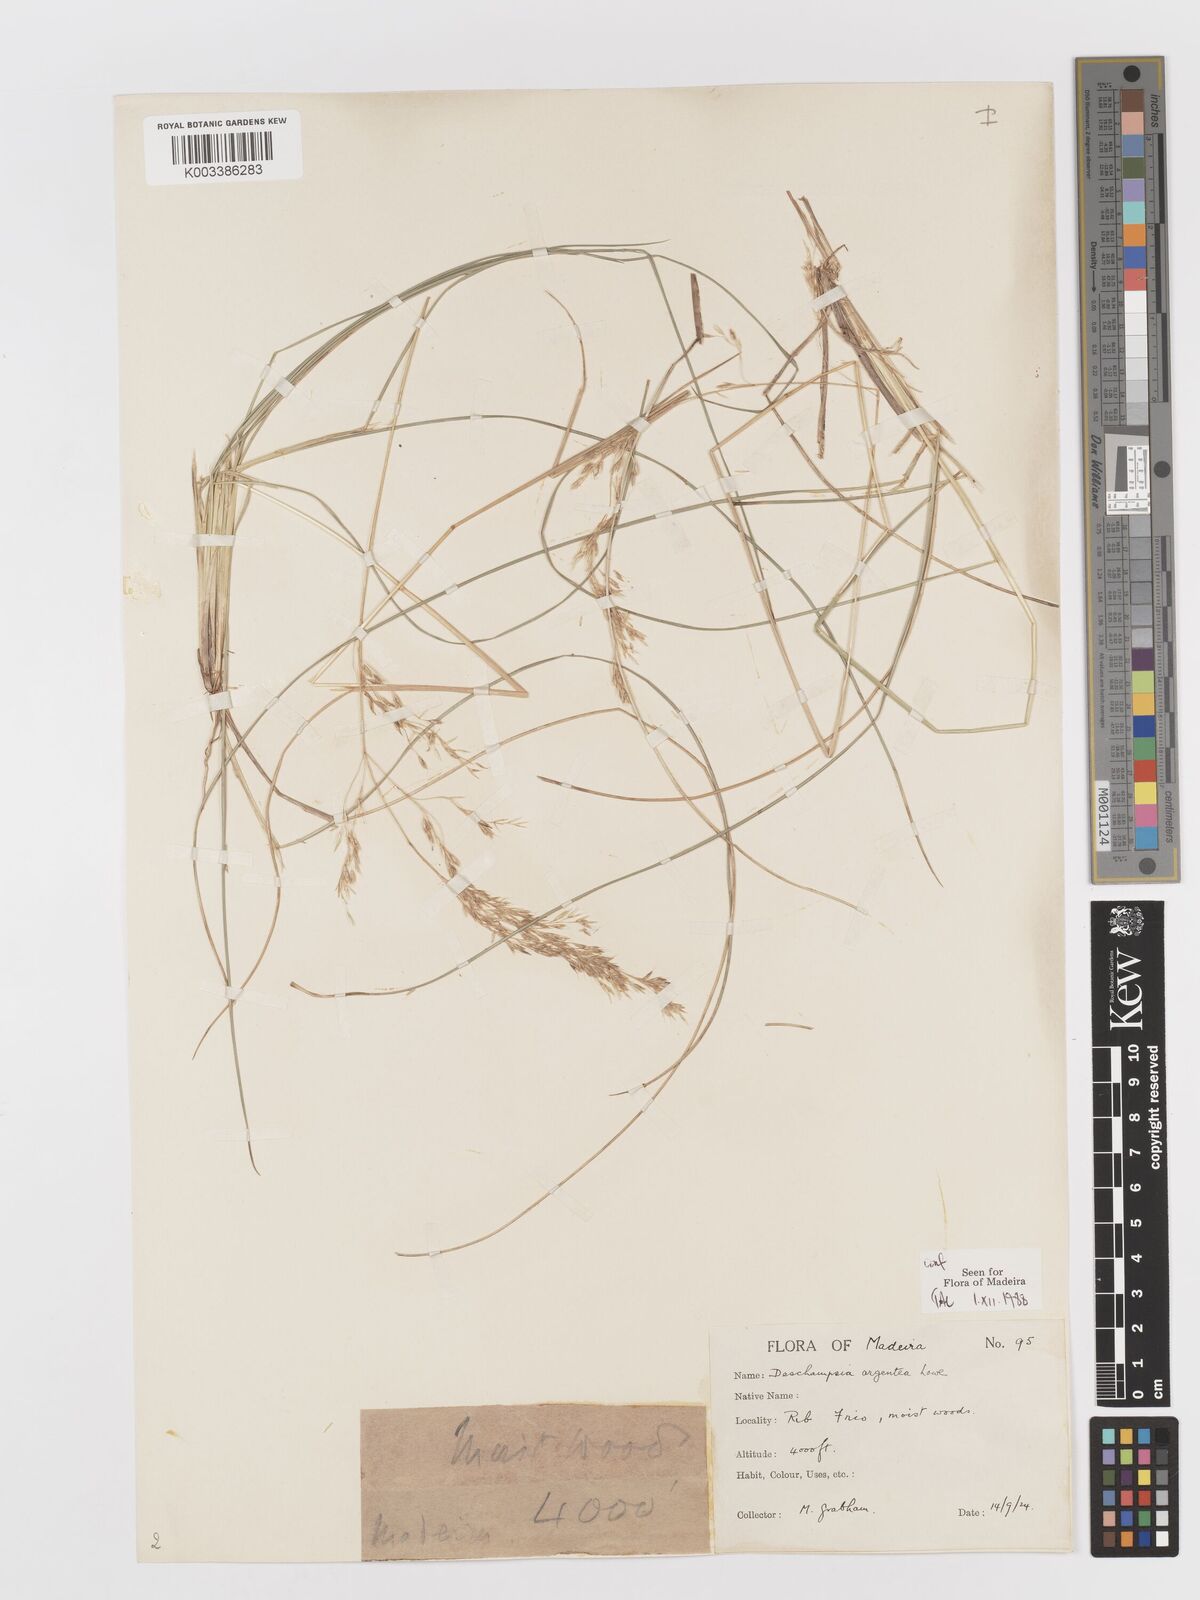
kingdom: Plantae
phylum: Tracheophyta
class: Liliopsida
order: Poales
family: Poaceae
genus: Deschampsia
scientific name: Deschampsia argentea
